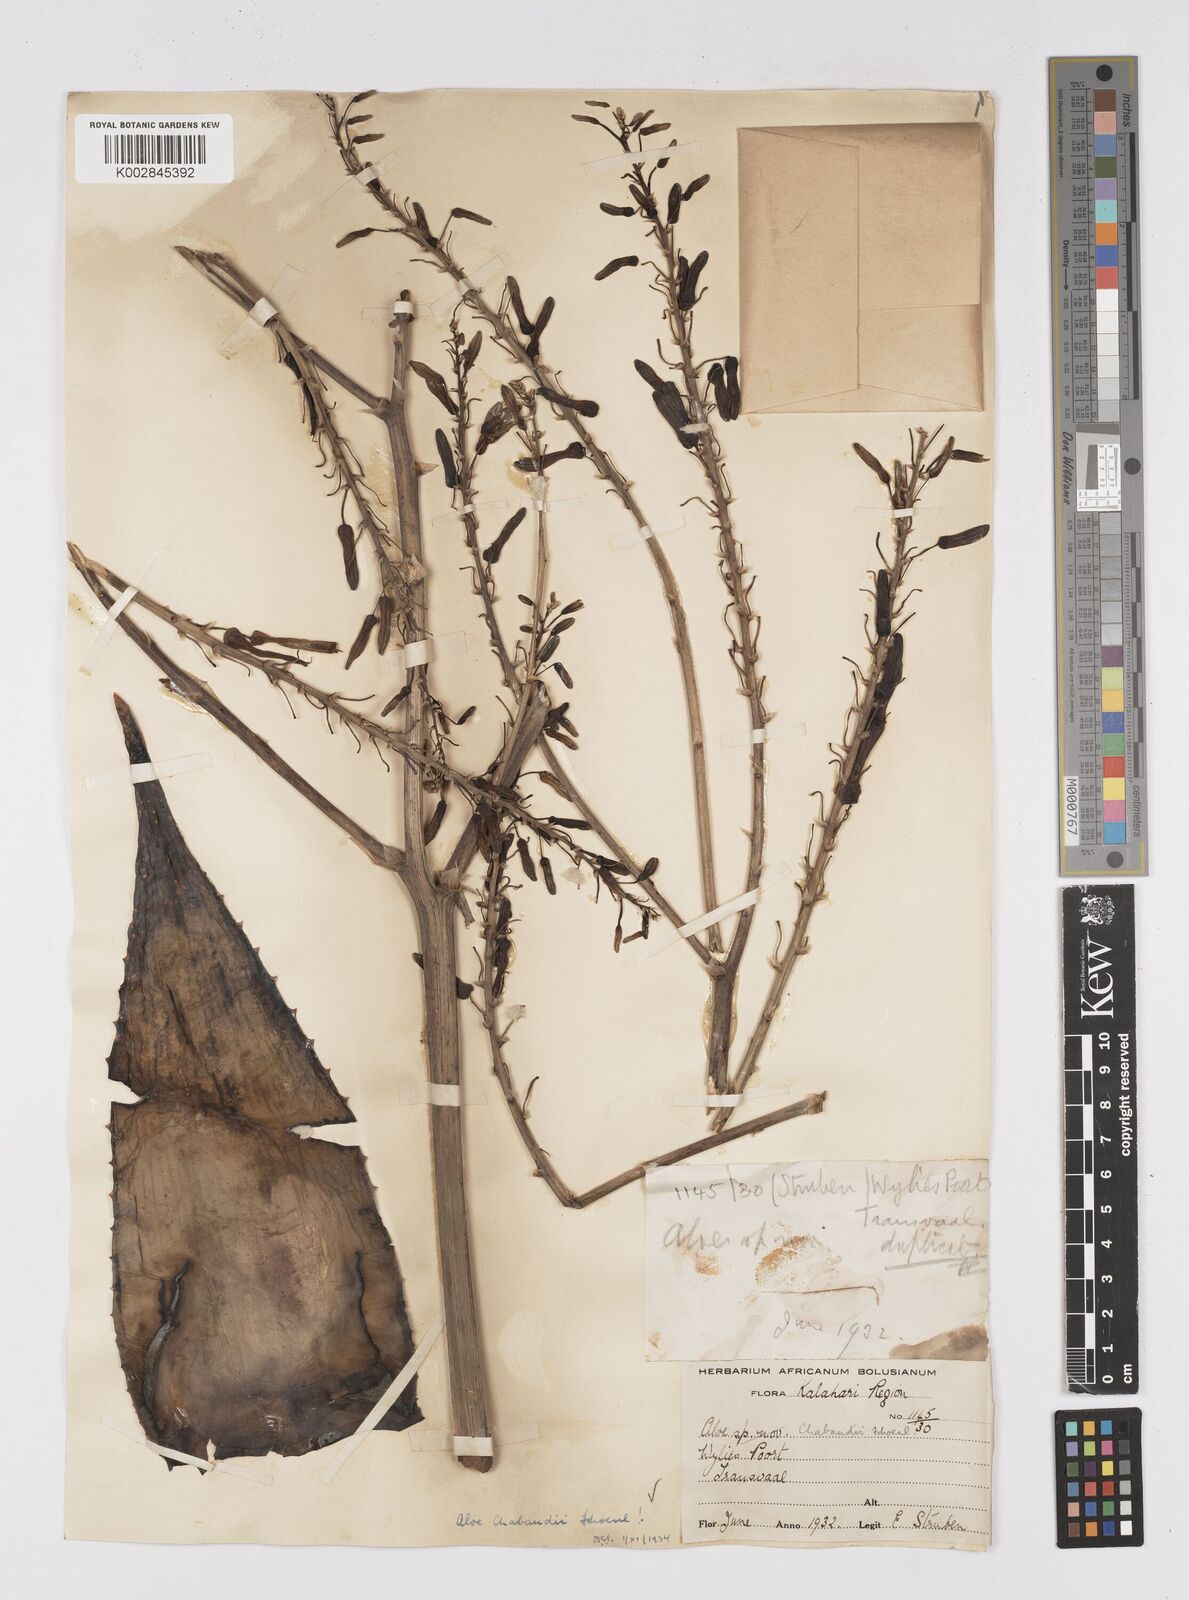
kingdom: Plantae
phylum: Tracheophyta
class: Liliopsida
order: Asparagales
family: Asphodelaceae
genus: Aloe
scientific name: Aloe chabaudii
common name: Chabaud's aloe
